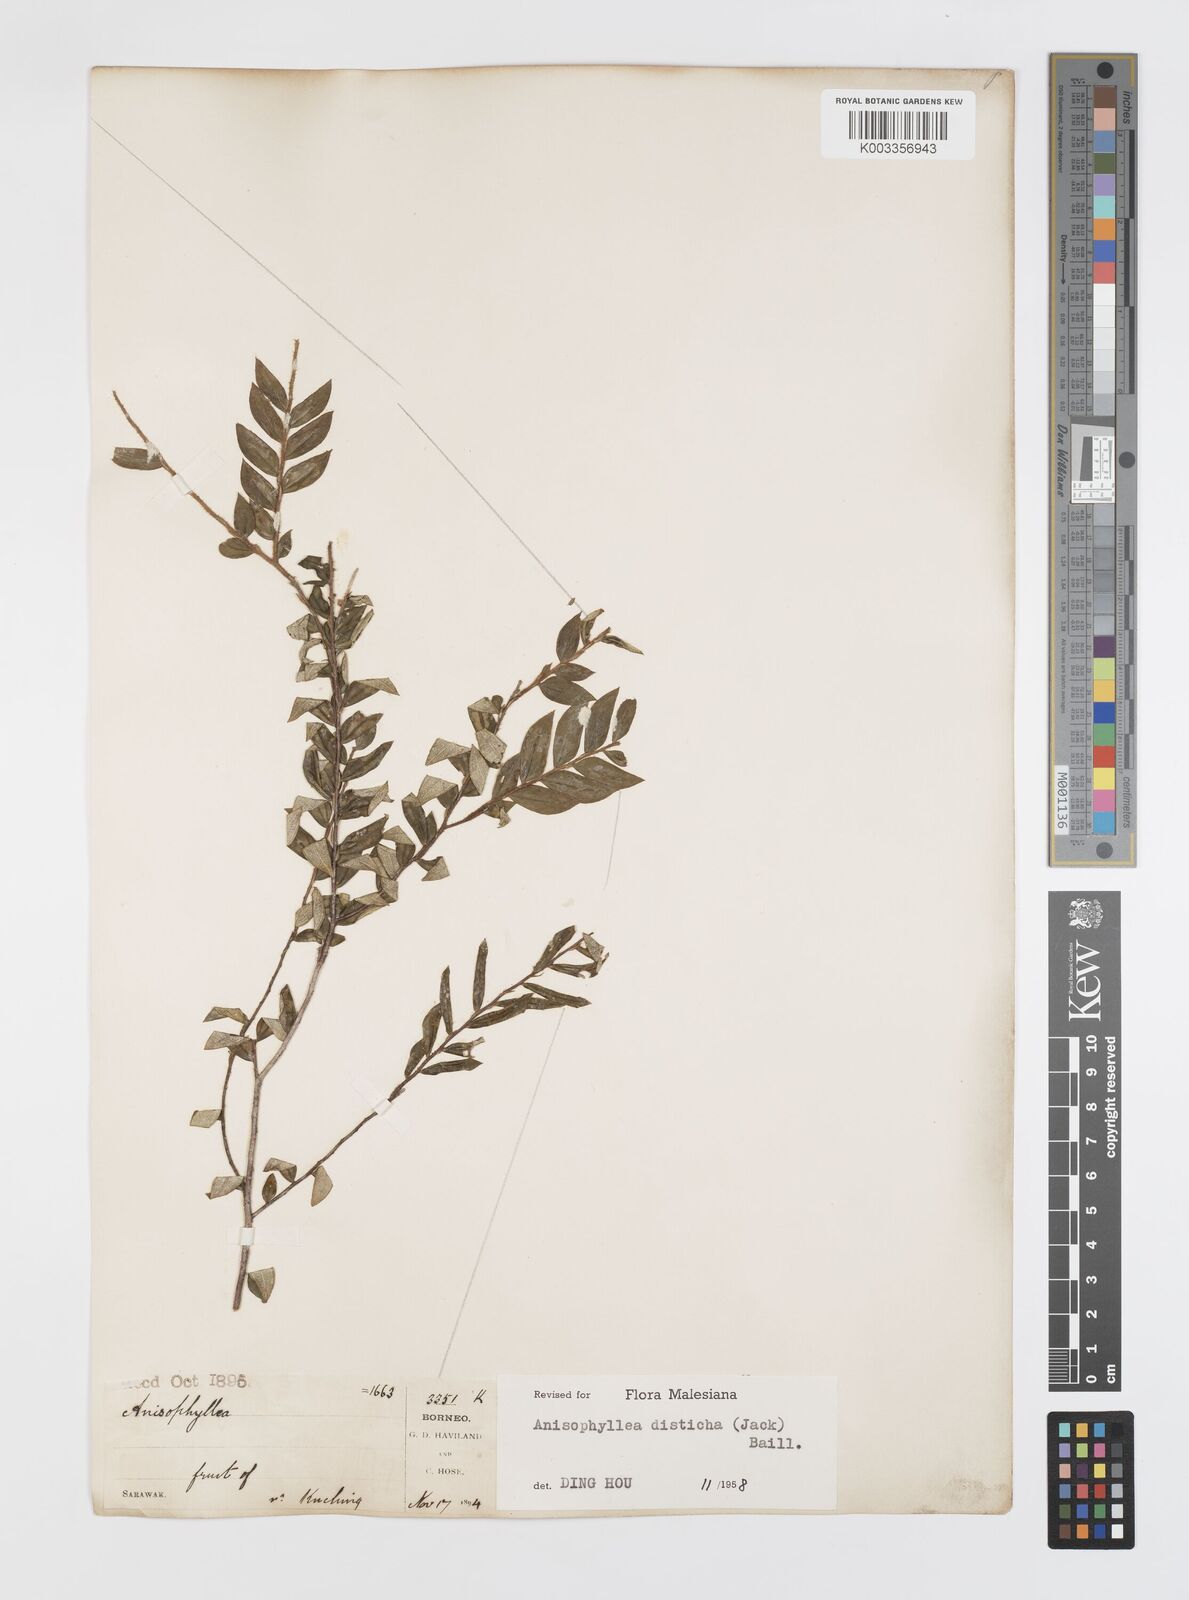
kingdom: Plantae
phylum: Tracheophyta
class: Magnoliopsida
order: Cucurbitales
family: Anisophylleaceae
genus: Anisophyllea
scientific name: Anisophyllea disticha
